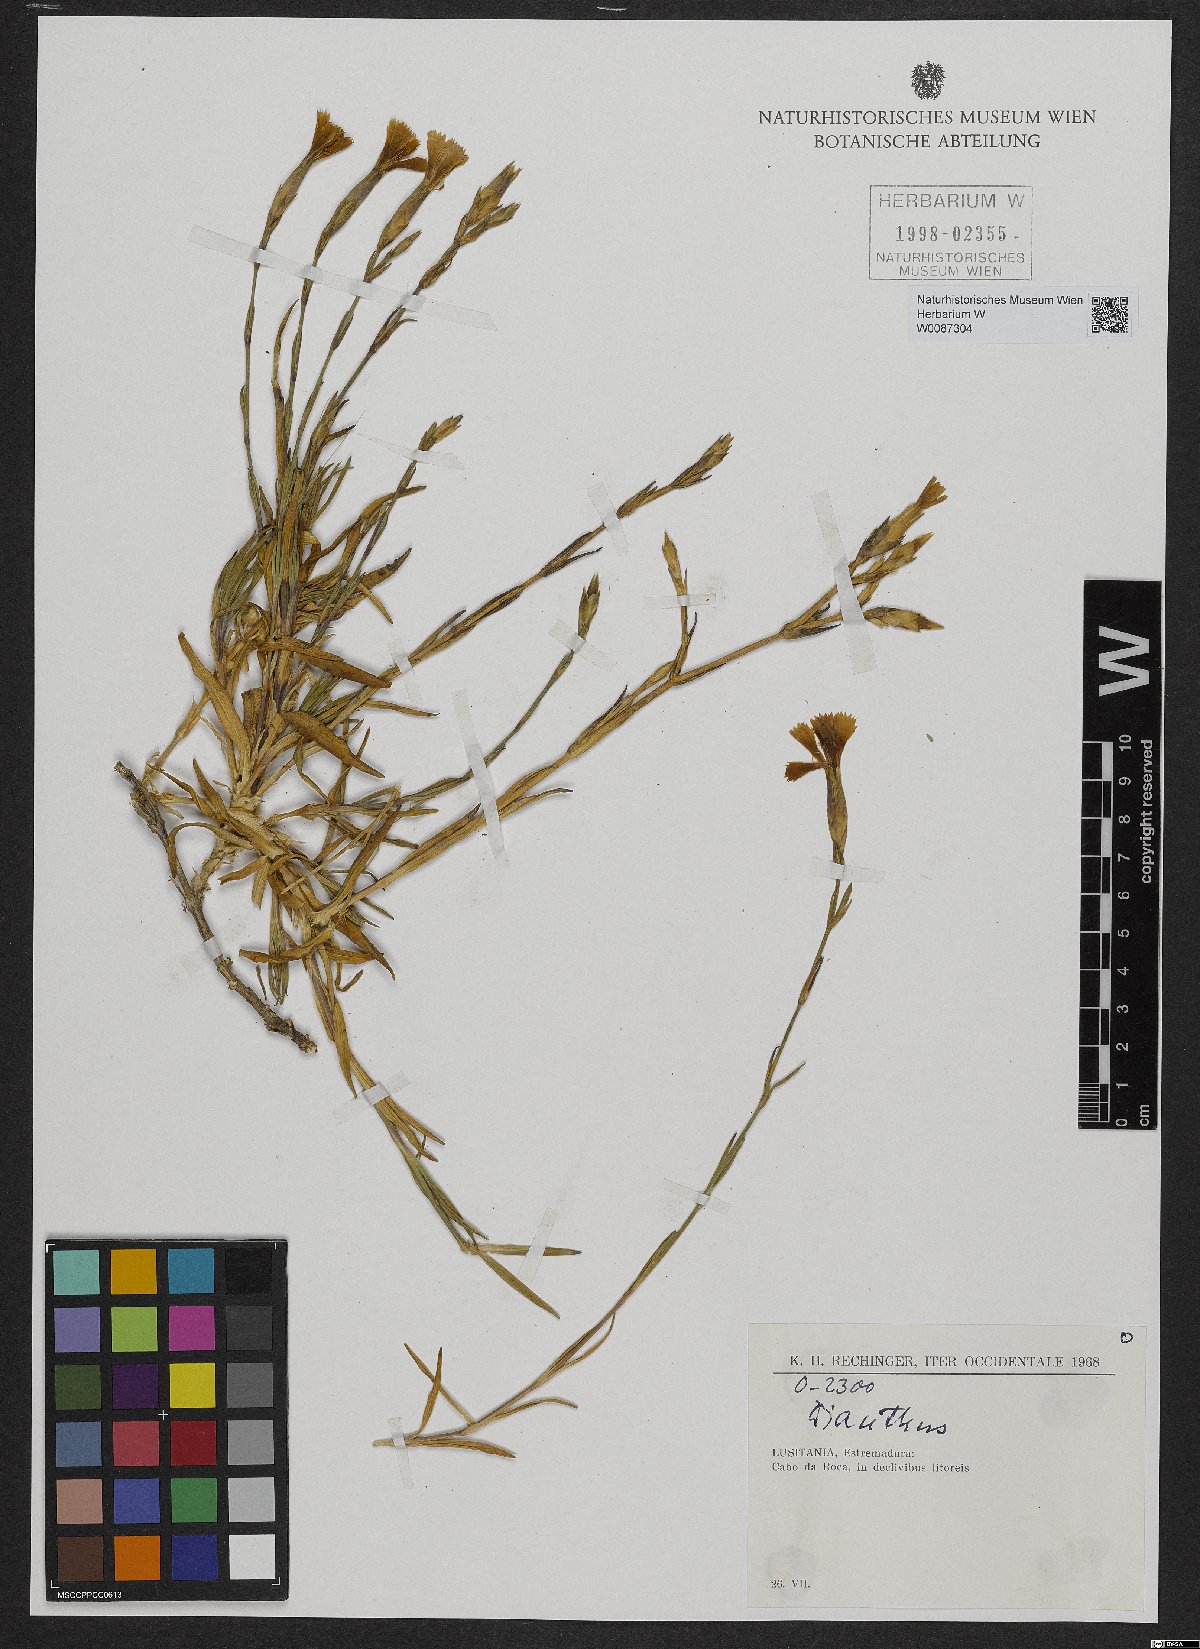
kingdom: Plantae
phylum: Tracheophyta
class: Magnoliopsida
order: Caryophyllales
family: Caryophyllaceae
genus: Dianthus
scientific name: Dianthus
